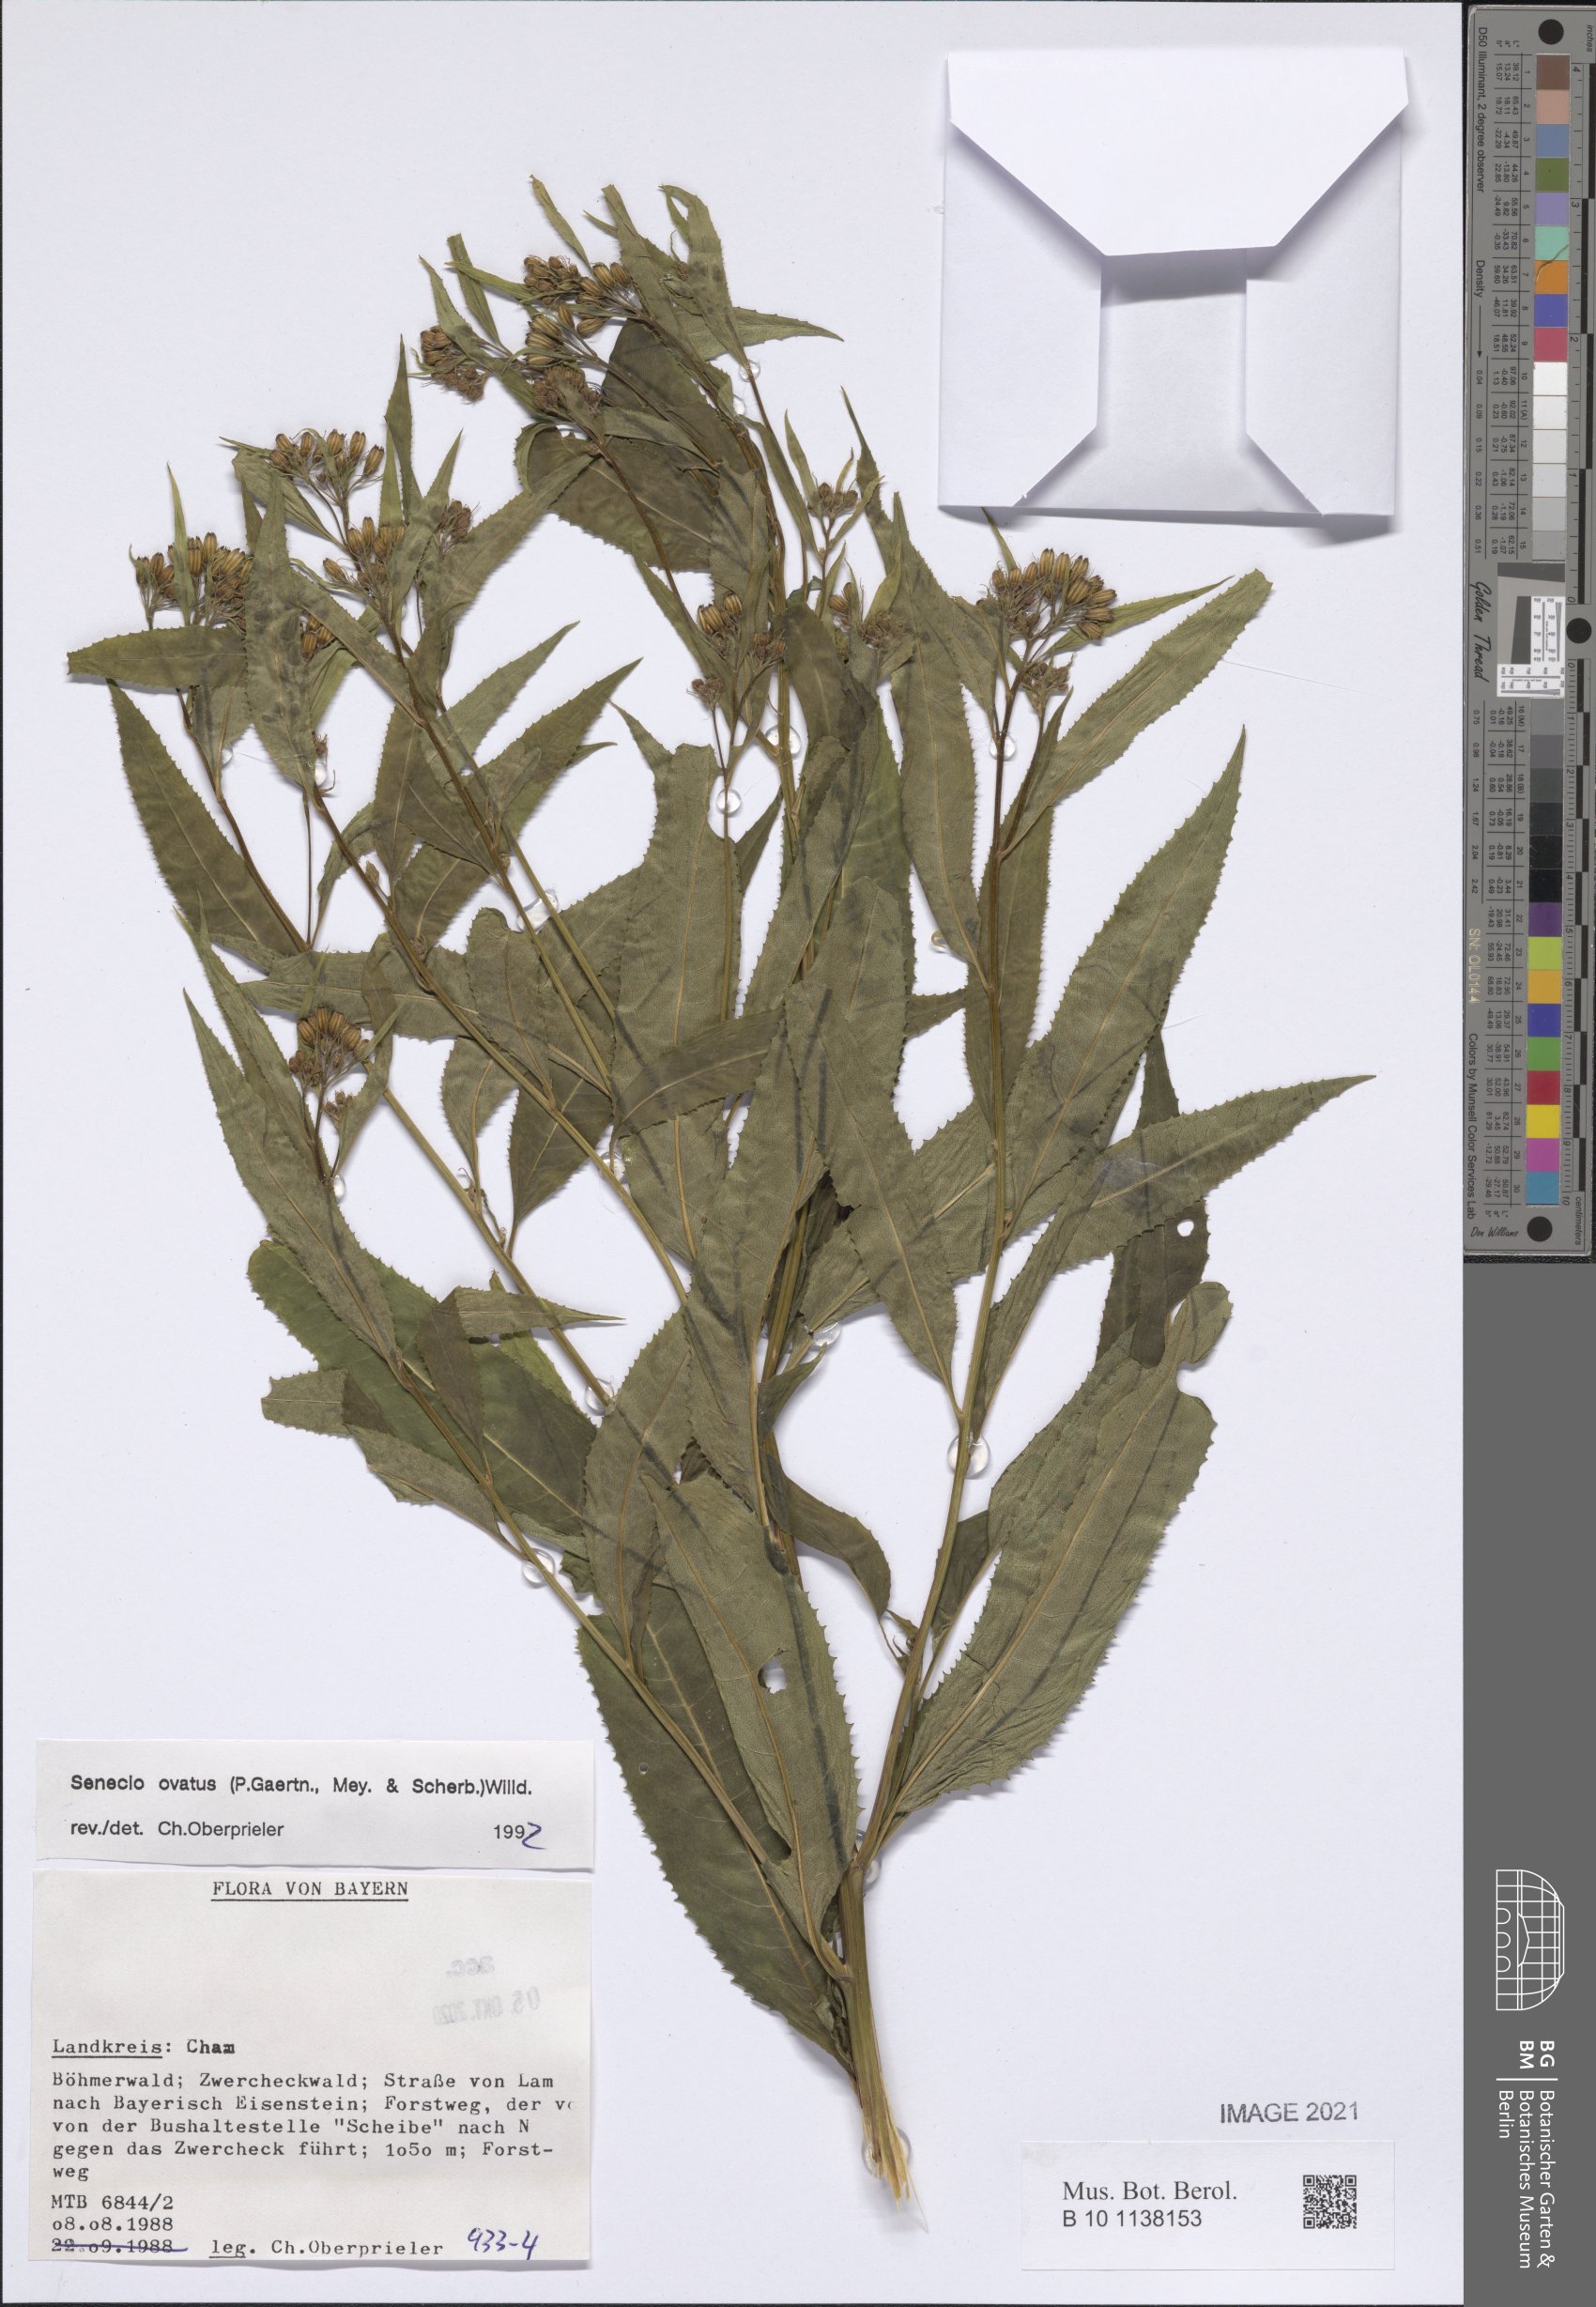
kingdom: Plantae
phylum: Tracheophyta
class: Magnoliopsida
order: Asterales
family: Asteraceae
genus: Senecio
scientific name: Senecio ovatus
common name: Wood ragwort
